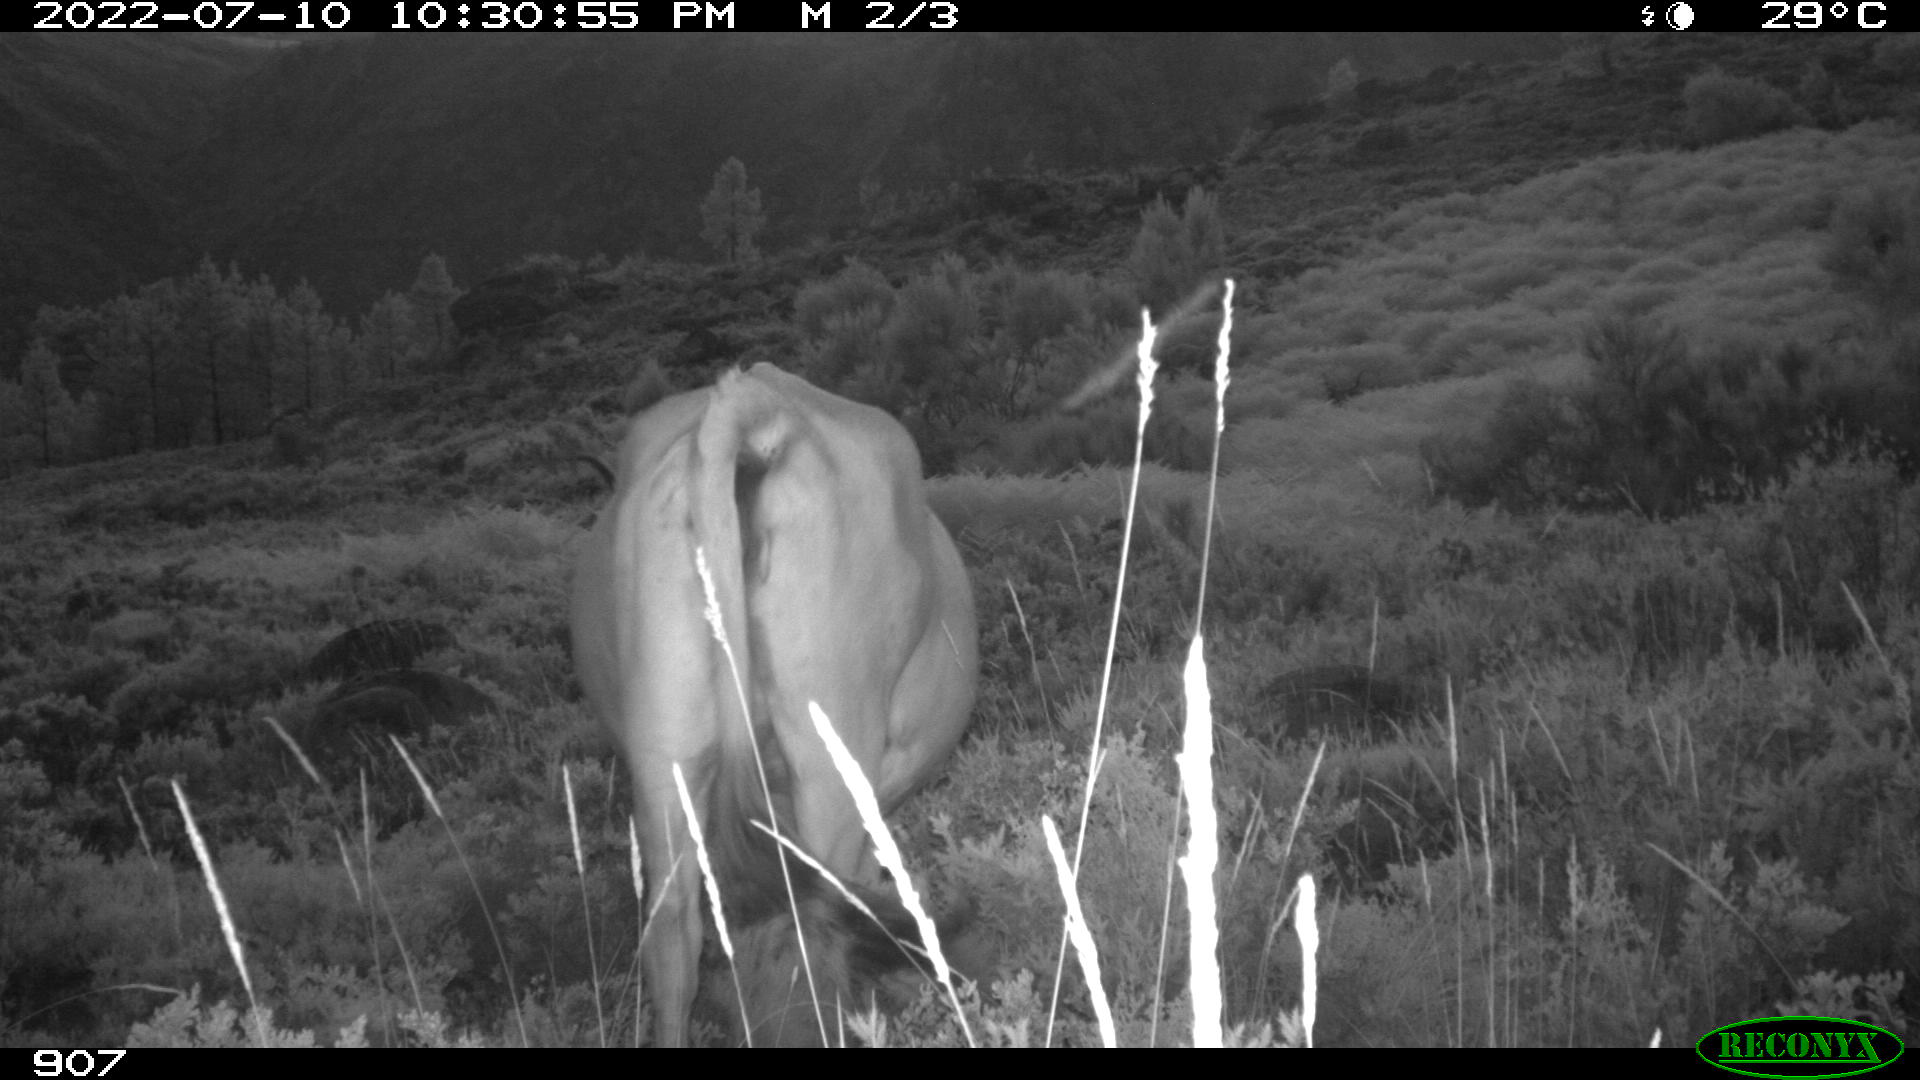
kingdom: Animalia
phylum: Chordata
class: Mammalia
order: Artiodactyla
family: Bovidae
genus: Bos
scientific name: Bos taurus
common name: Domesticated cattle
